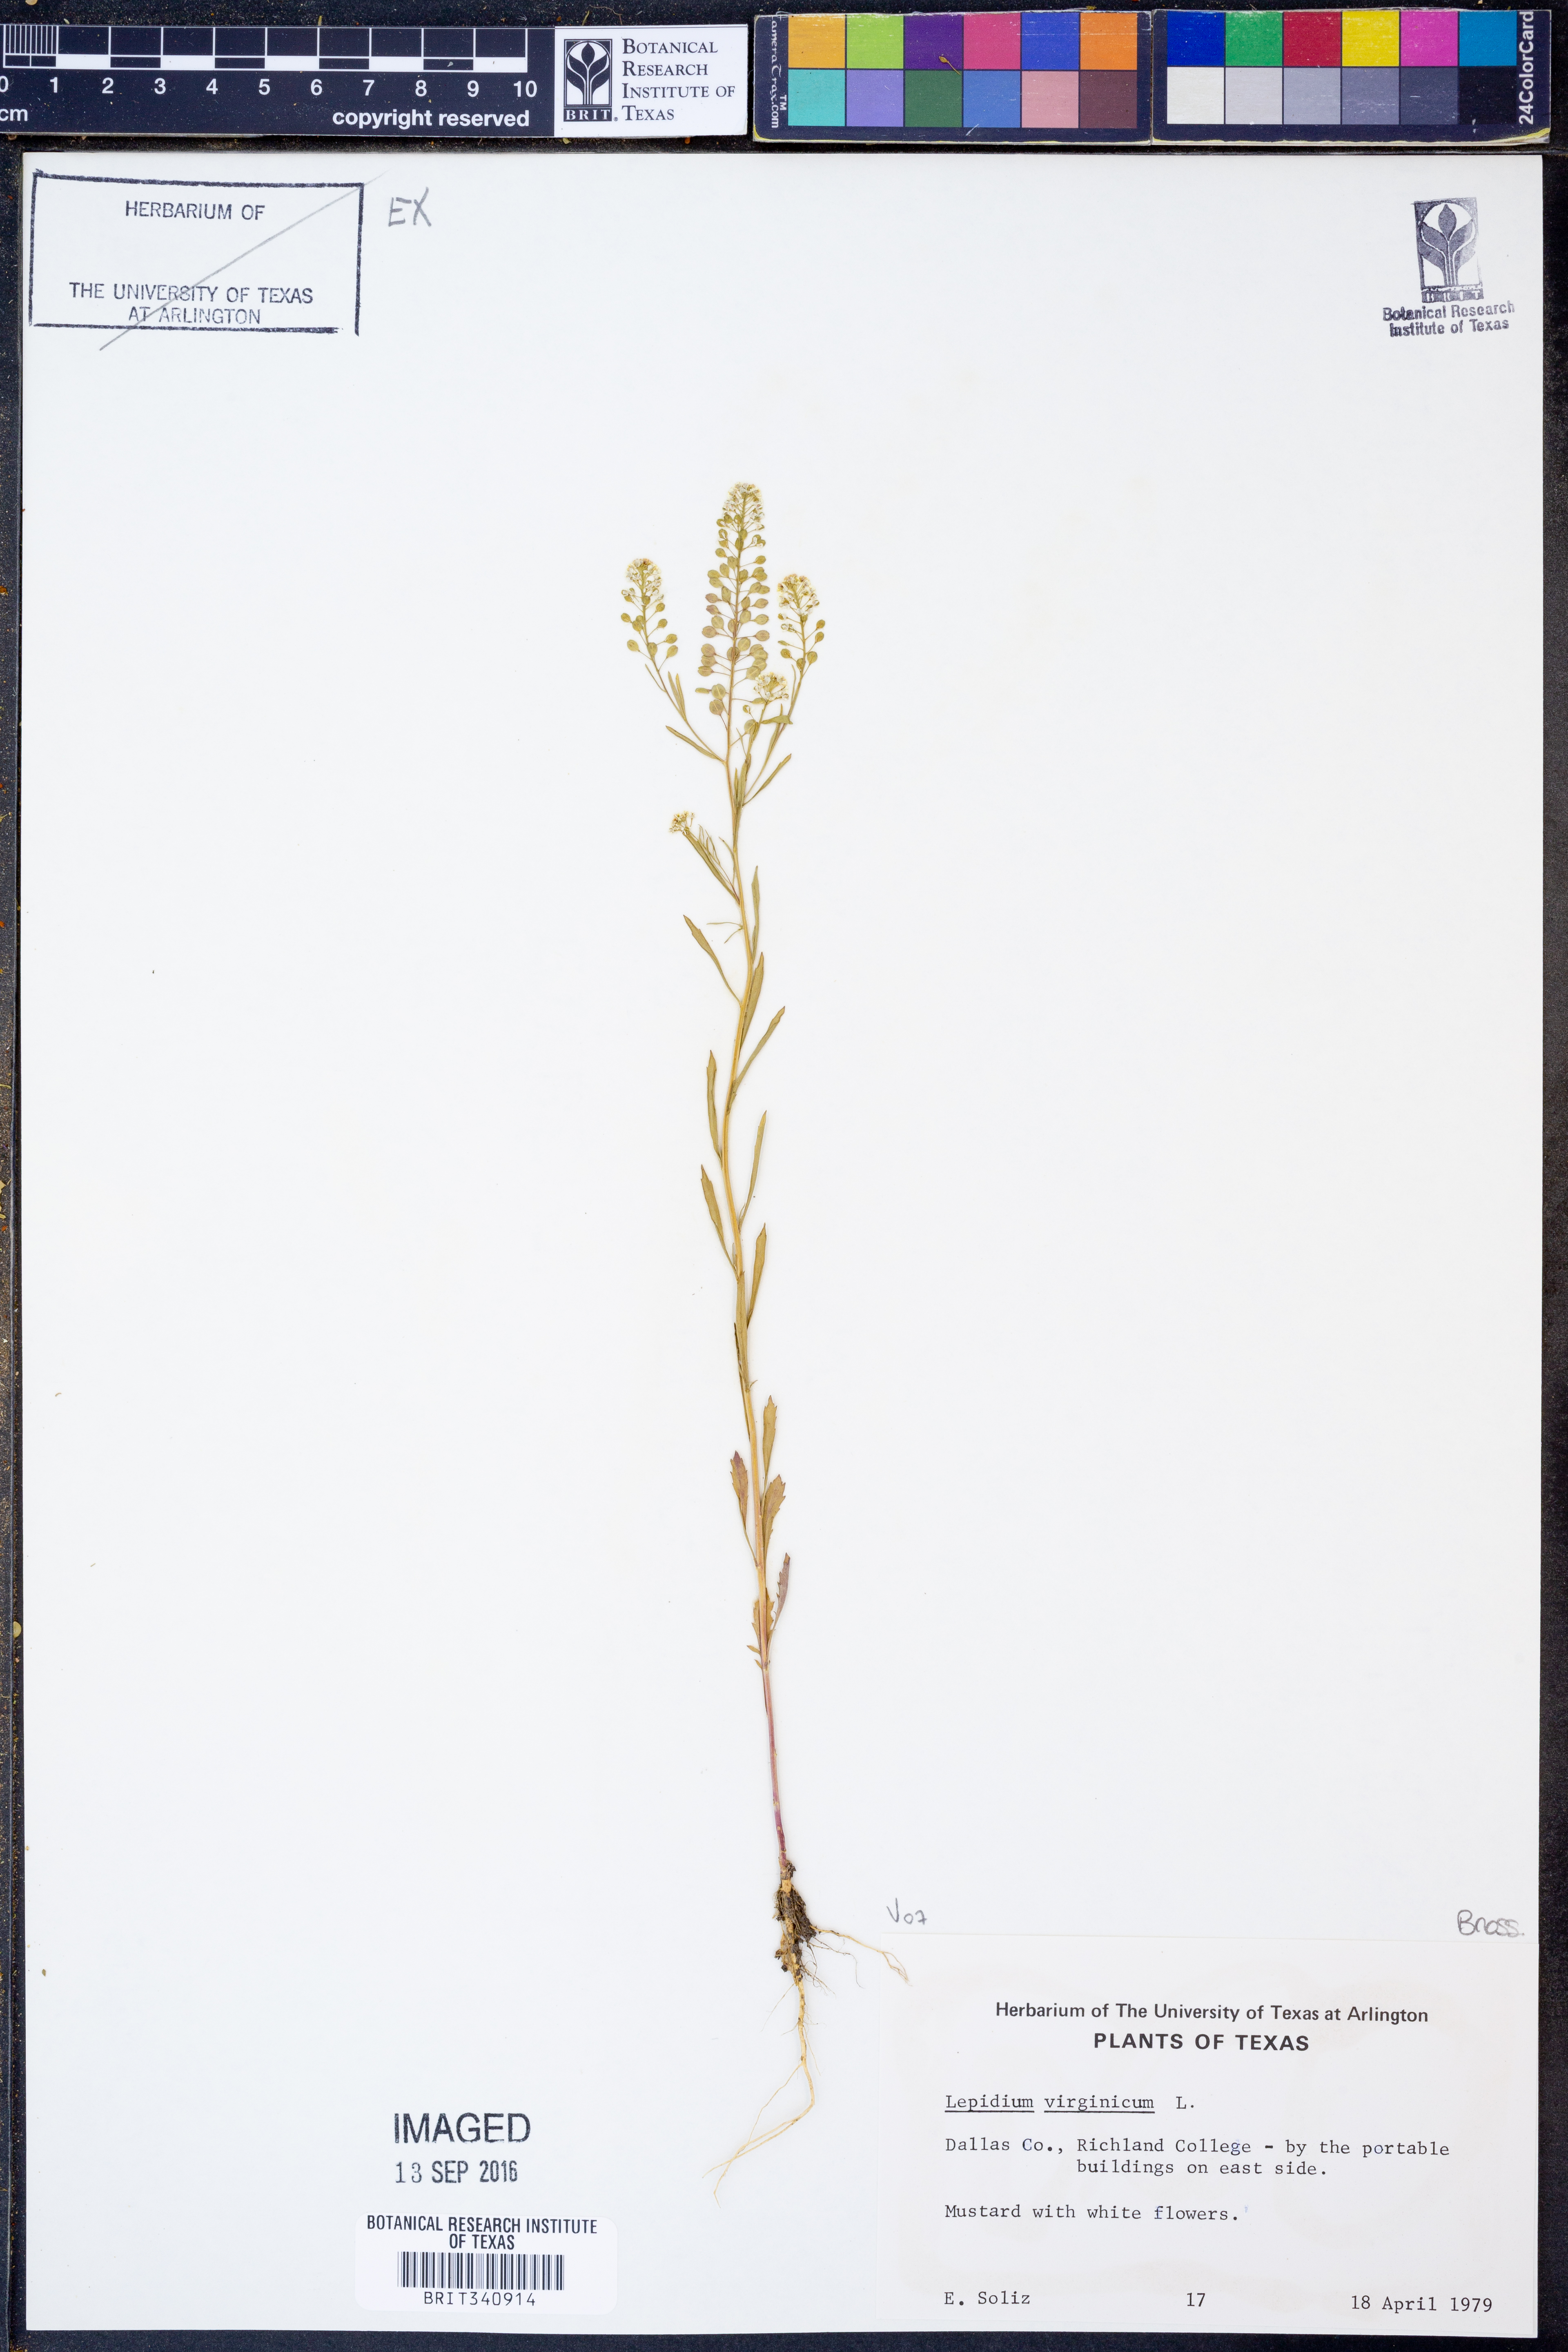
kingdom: Plantae
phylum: Tracheophyta
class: Magnoliopsida
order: Brassicales
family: Brassicaceae
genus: Lepidium
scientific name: Lepidium virginicum
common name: Least pepperwort
